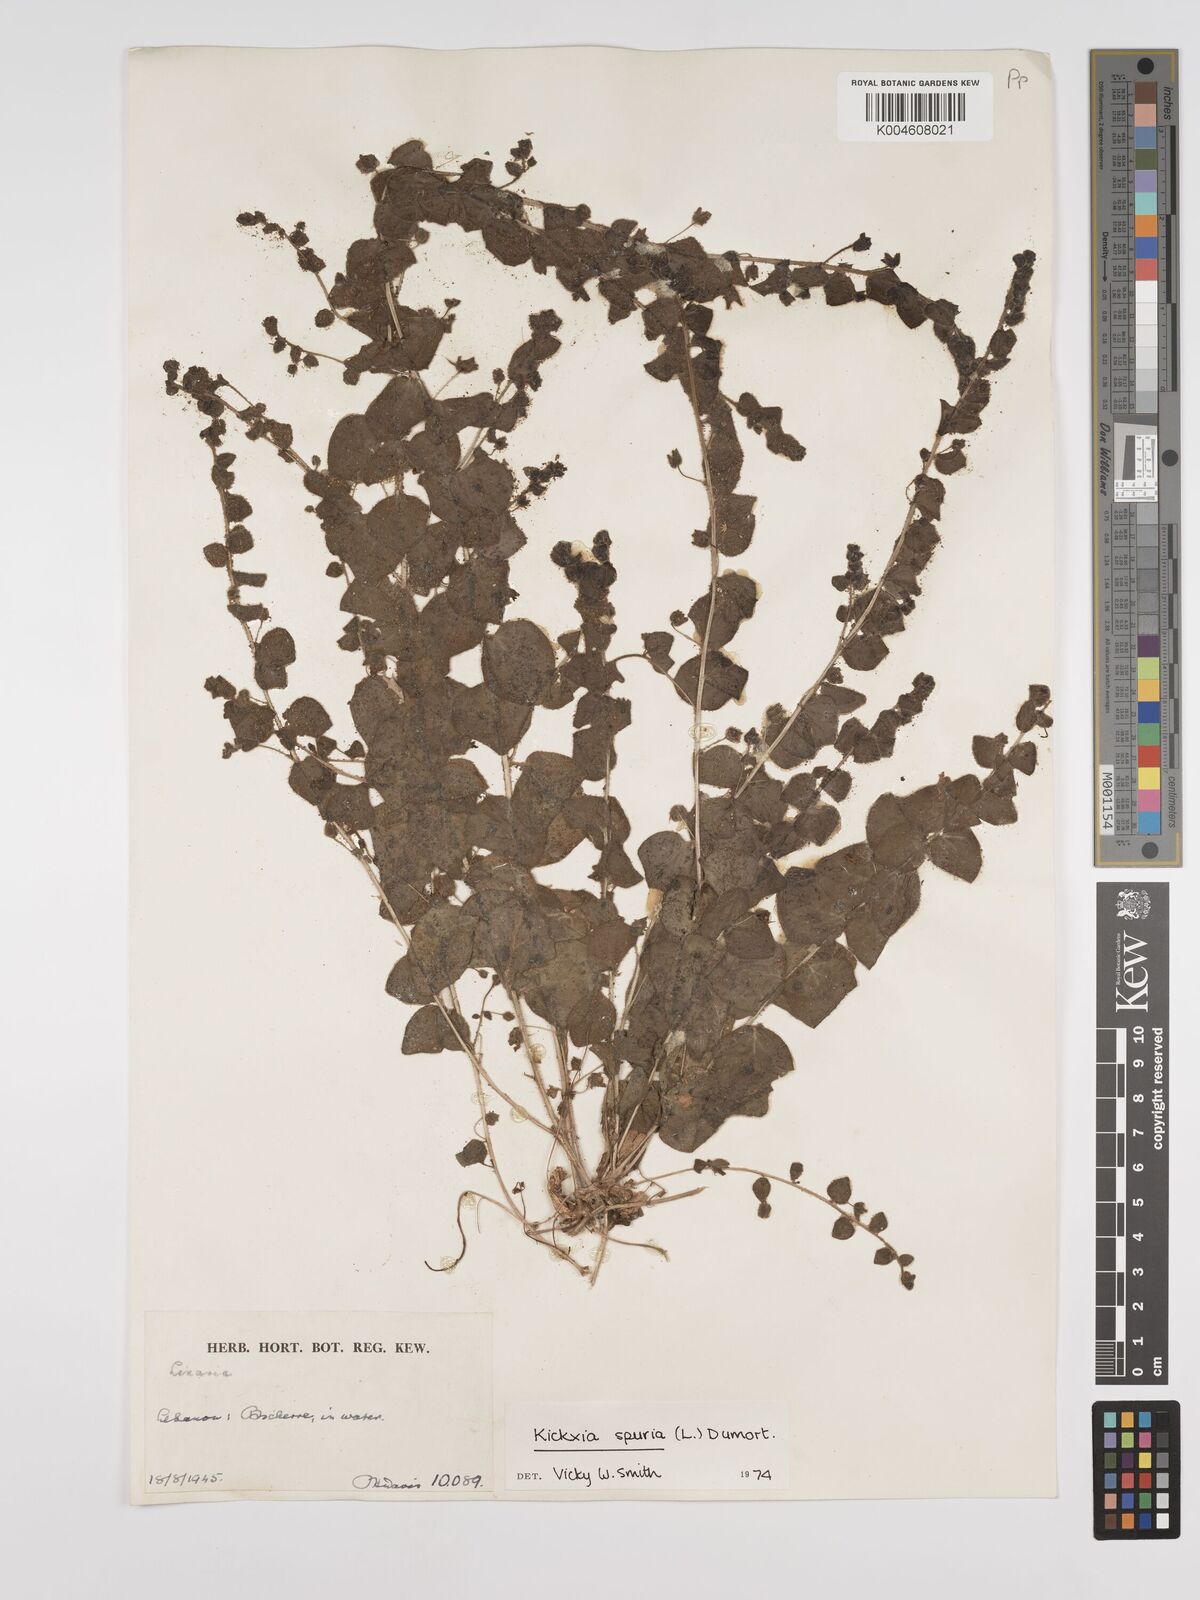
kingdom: Plantae
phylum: Tracheophyta
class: Magnoliopsida
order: Lamiales
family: Plantaginaceae
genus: Kickxia
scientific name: Kickxia spuria
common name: Round-leaved fluellen
